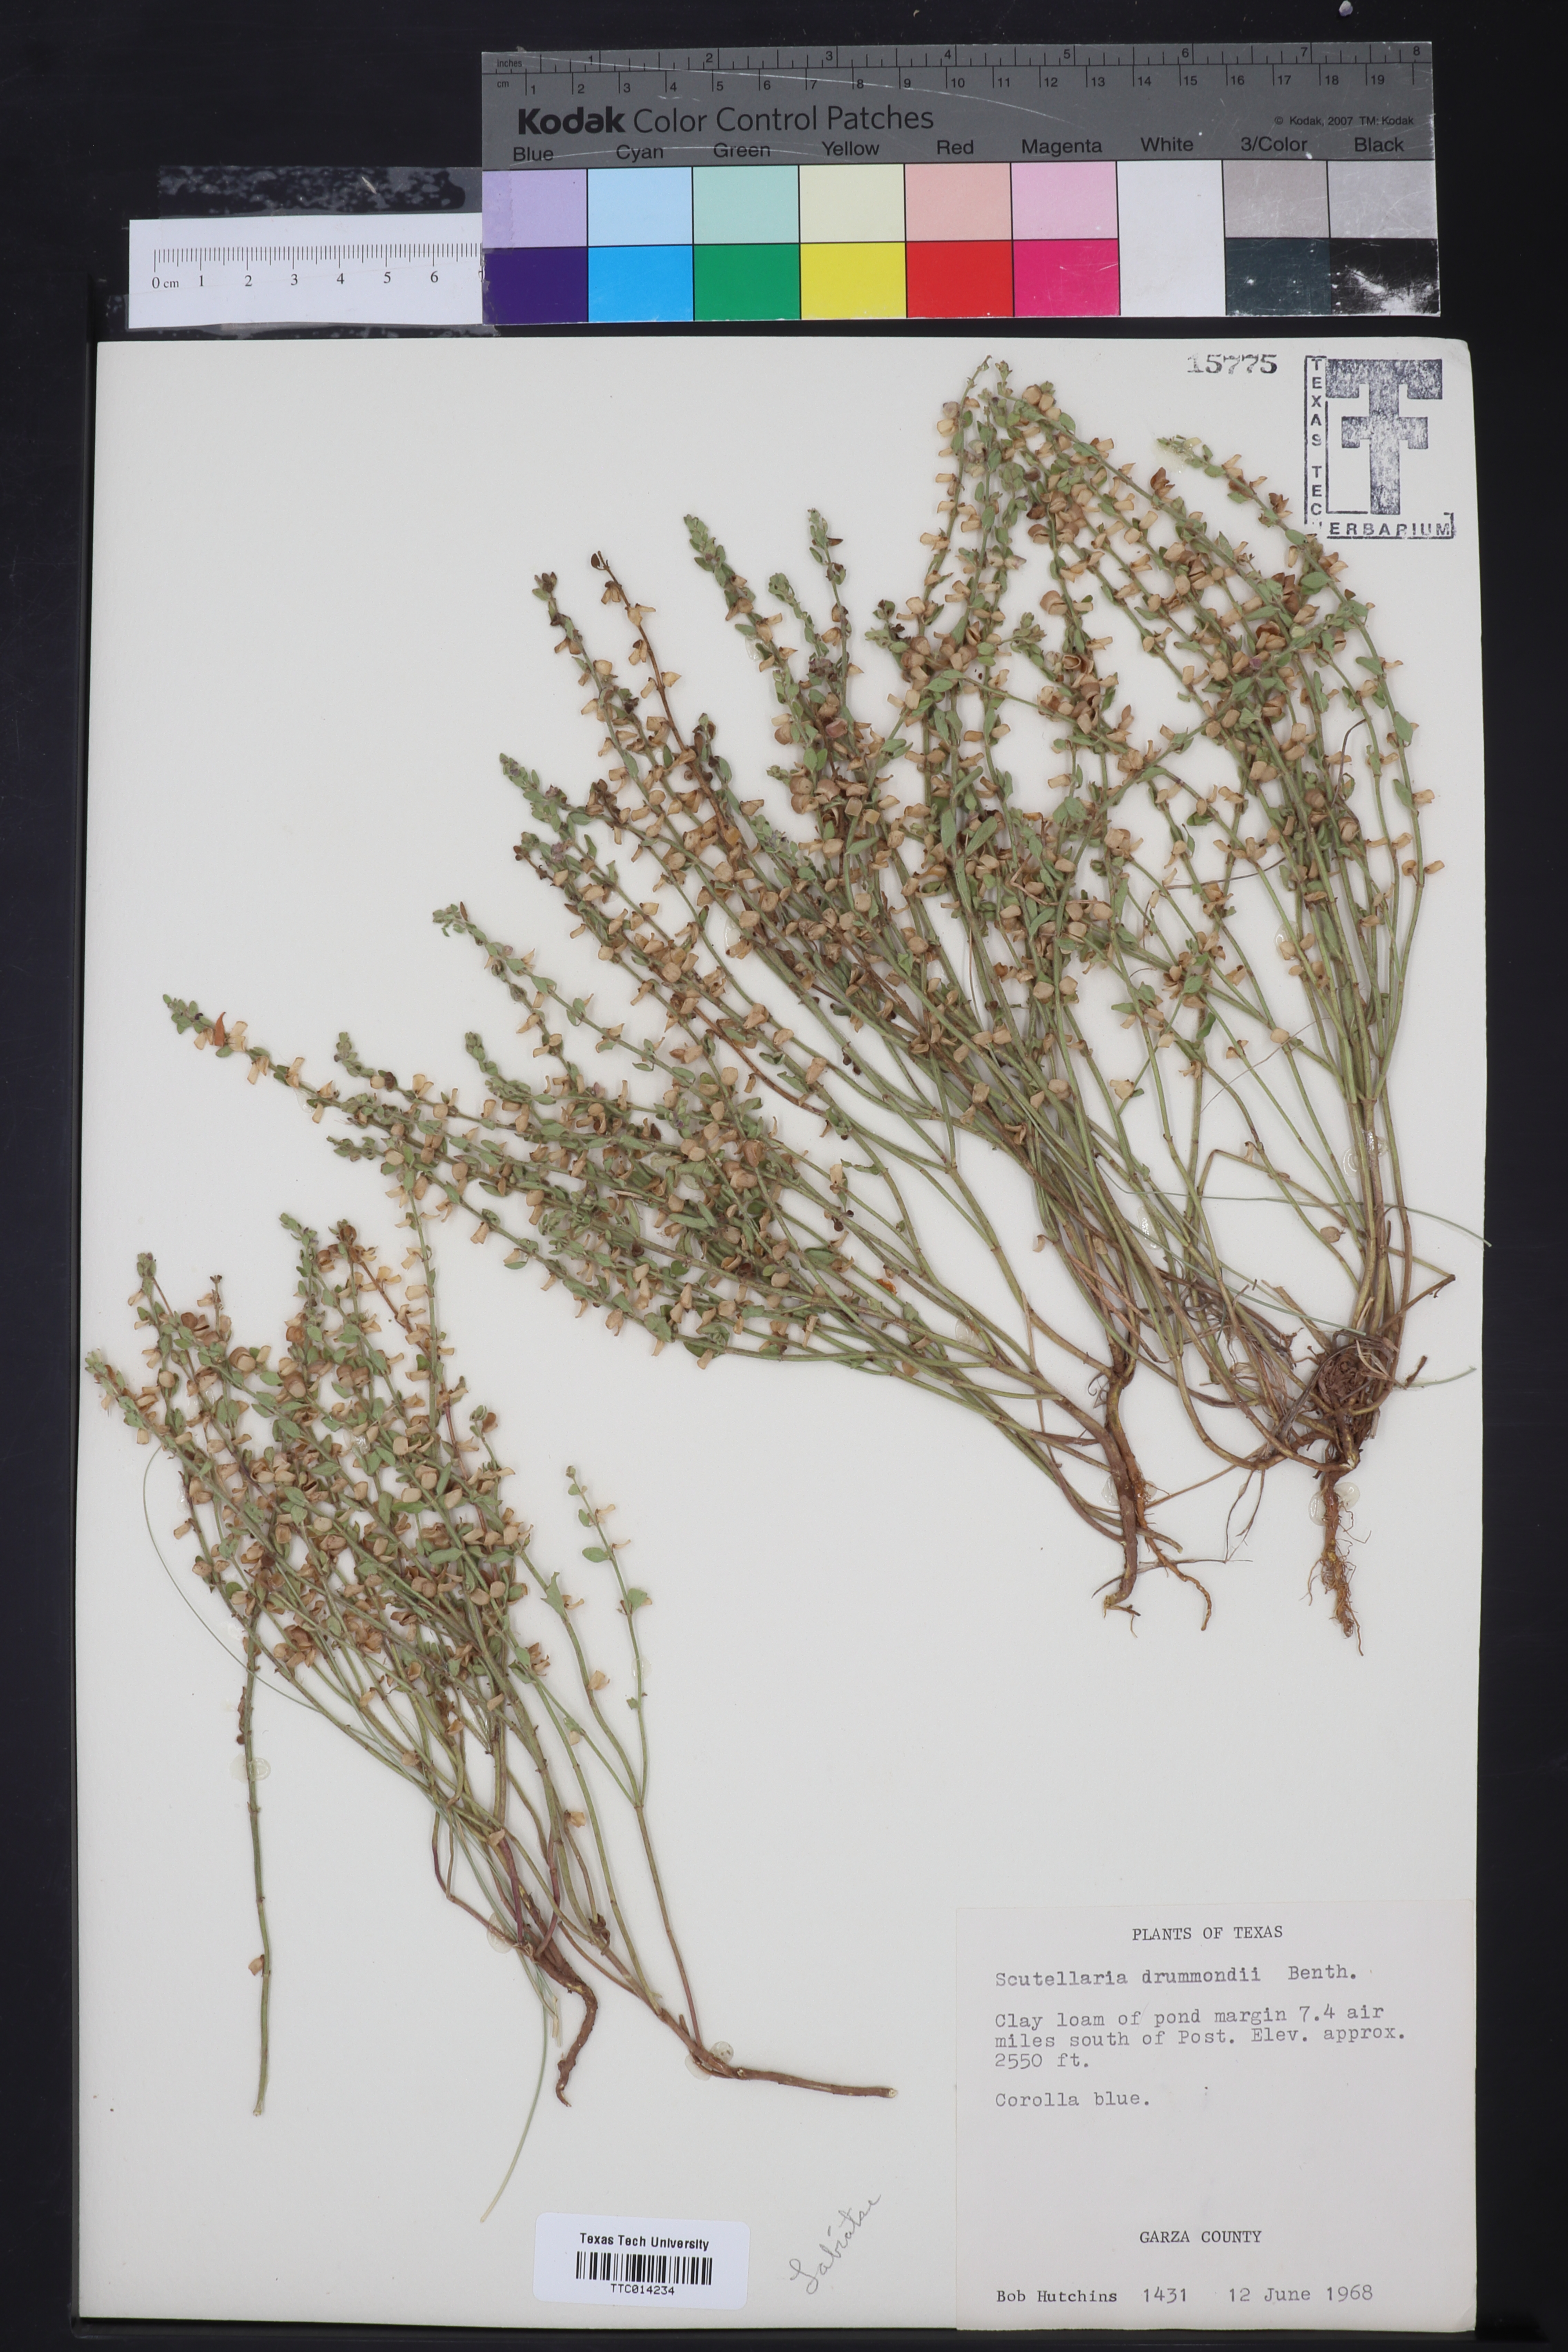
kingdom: Plantae
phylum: Tracheophyta
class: Magnoliopsida
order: Lamiales
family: Lamiaceae
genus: Scutellaria
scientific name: Scutellaria drummondii
